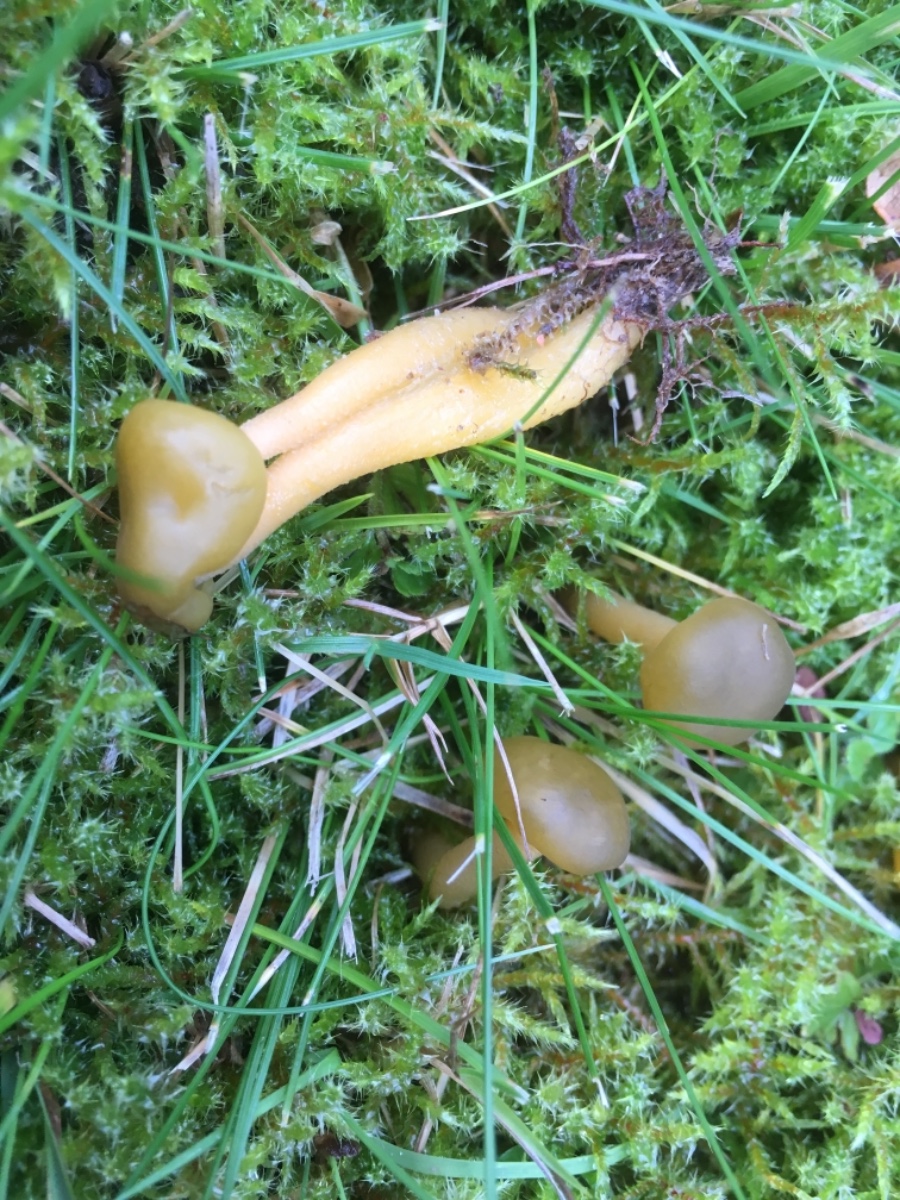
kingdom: Fungi
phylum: Ascomycota
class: Leotiomycetes
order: Leotiales
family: Leotiaceae
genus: Leotia
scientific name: Leotia lubrica
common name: ravsvamp
